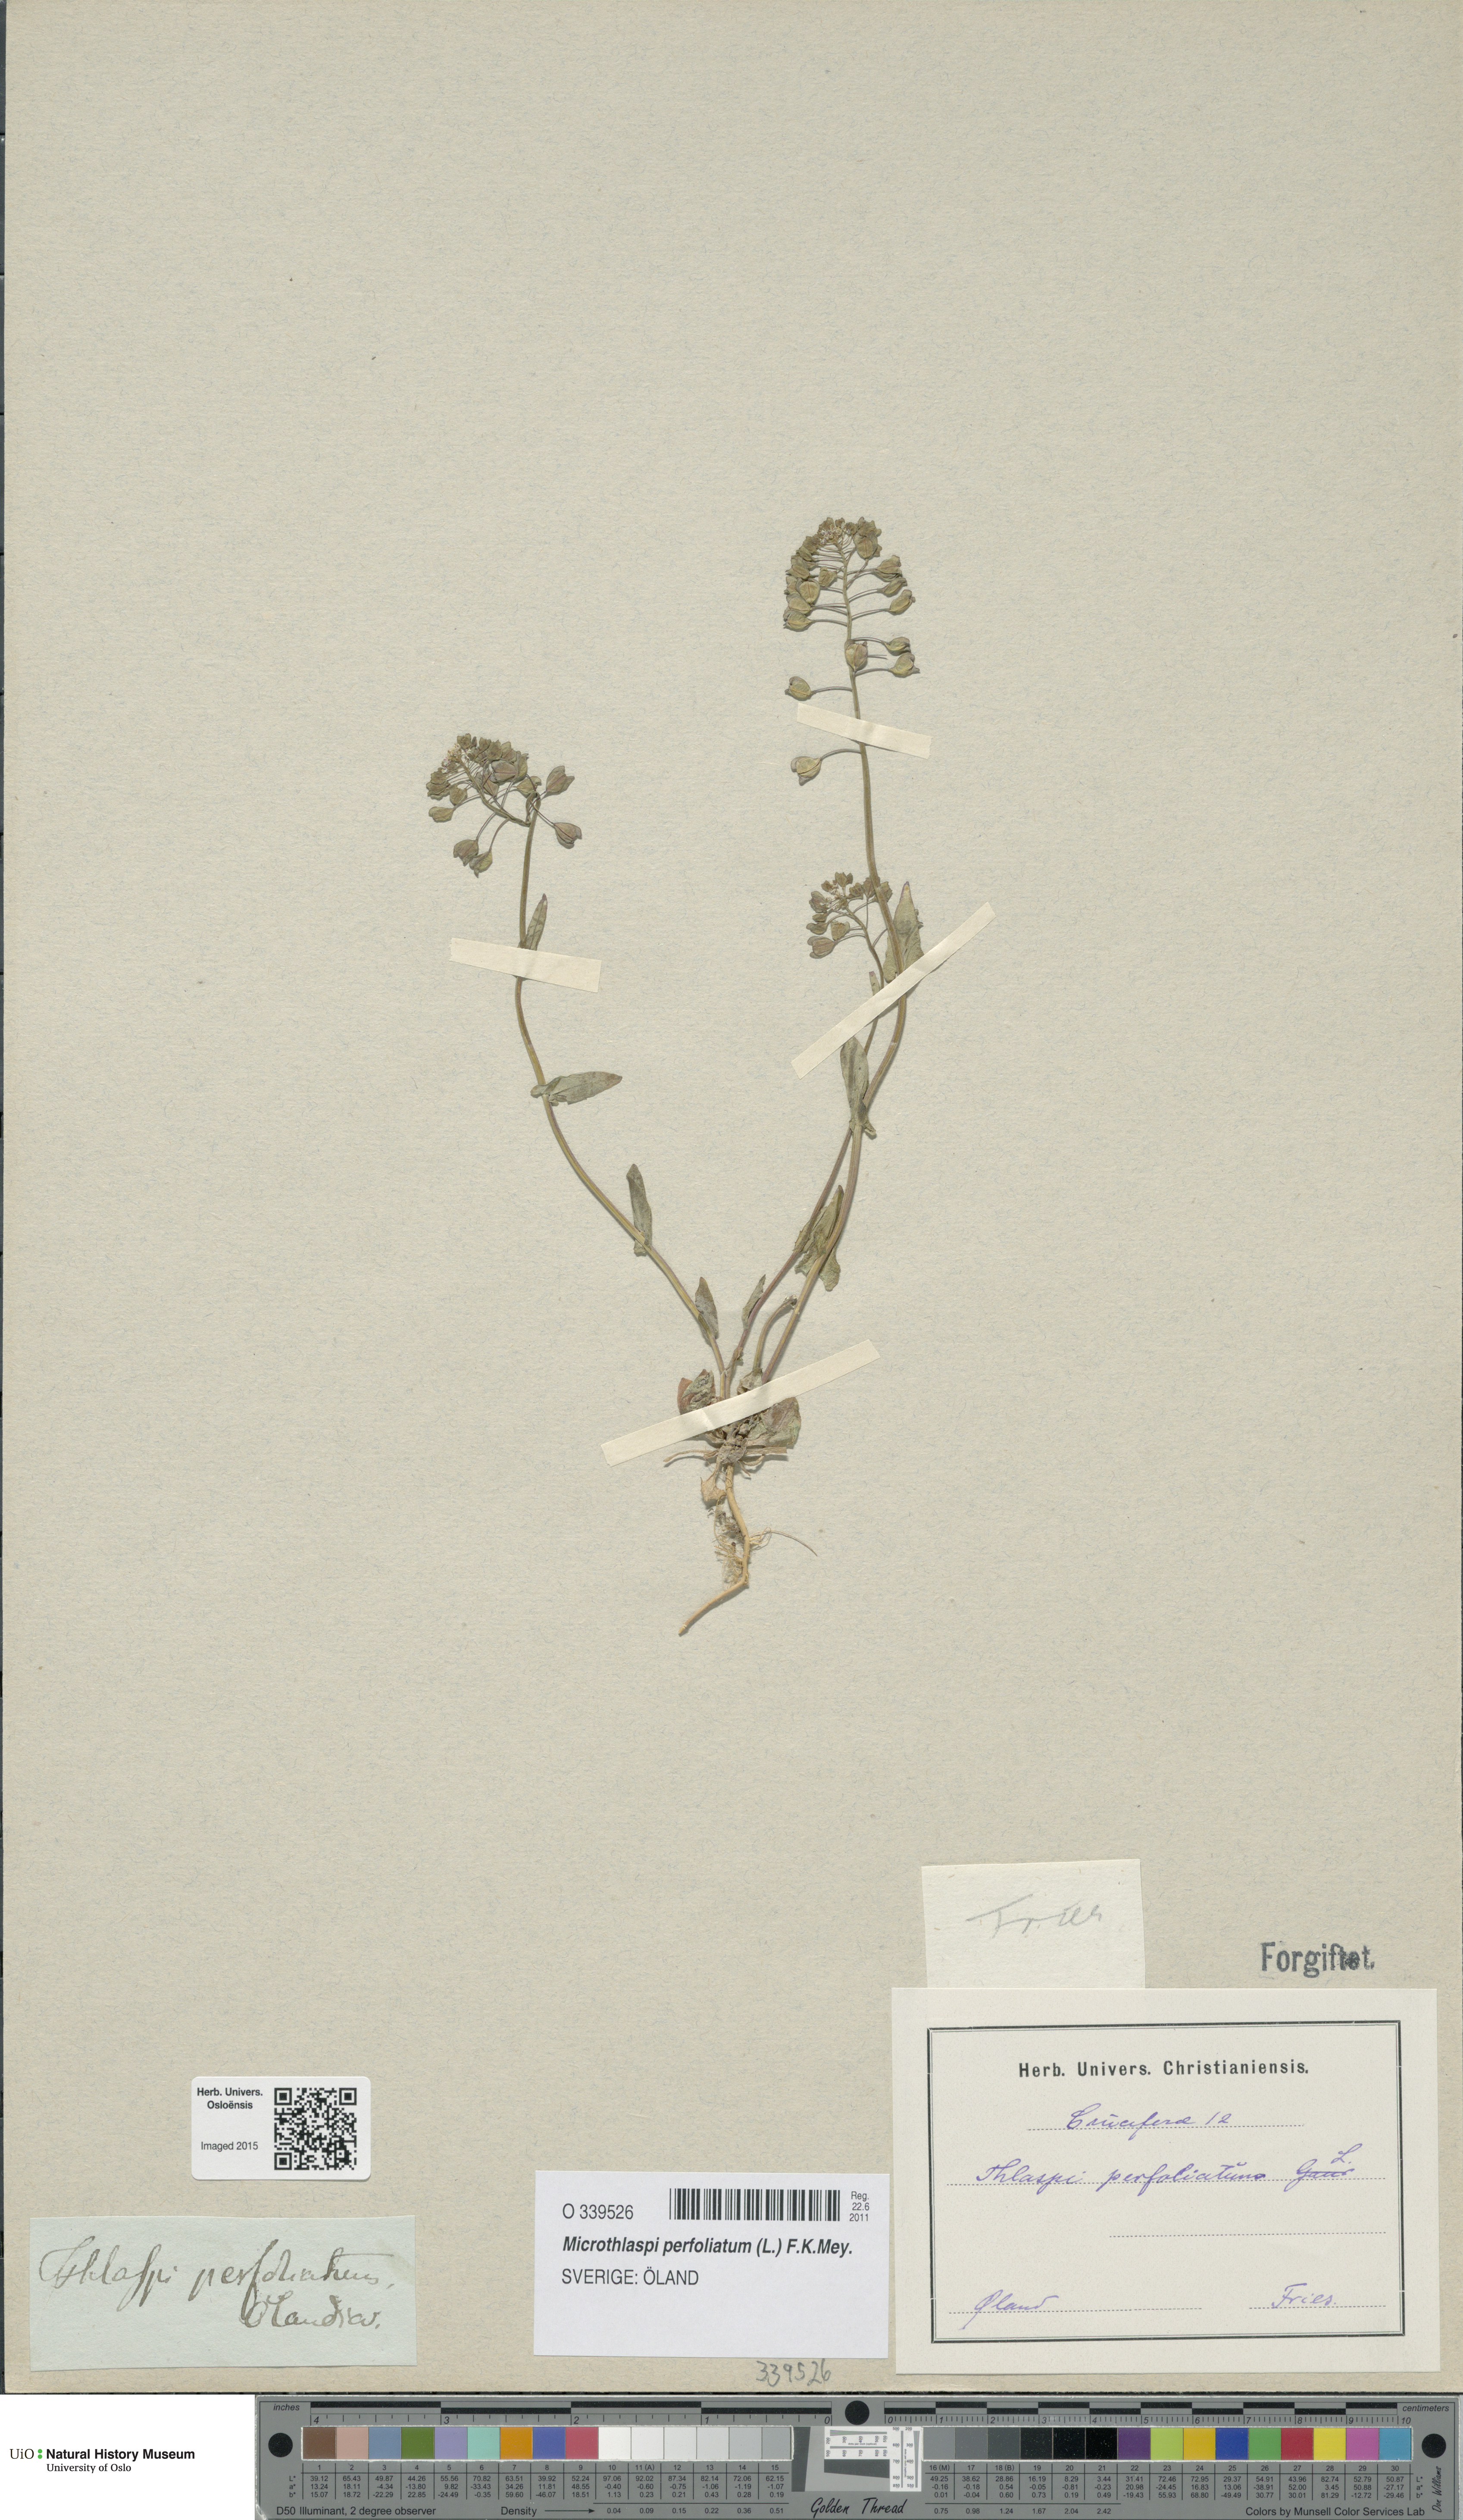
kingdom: Plantae
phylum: Tracheophyta
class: Magnoliopsida
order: Brassicales
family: Brassicaceae
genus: Noccaea
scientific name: Noccaea perfoliata
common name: Perfoliate pennycress
